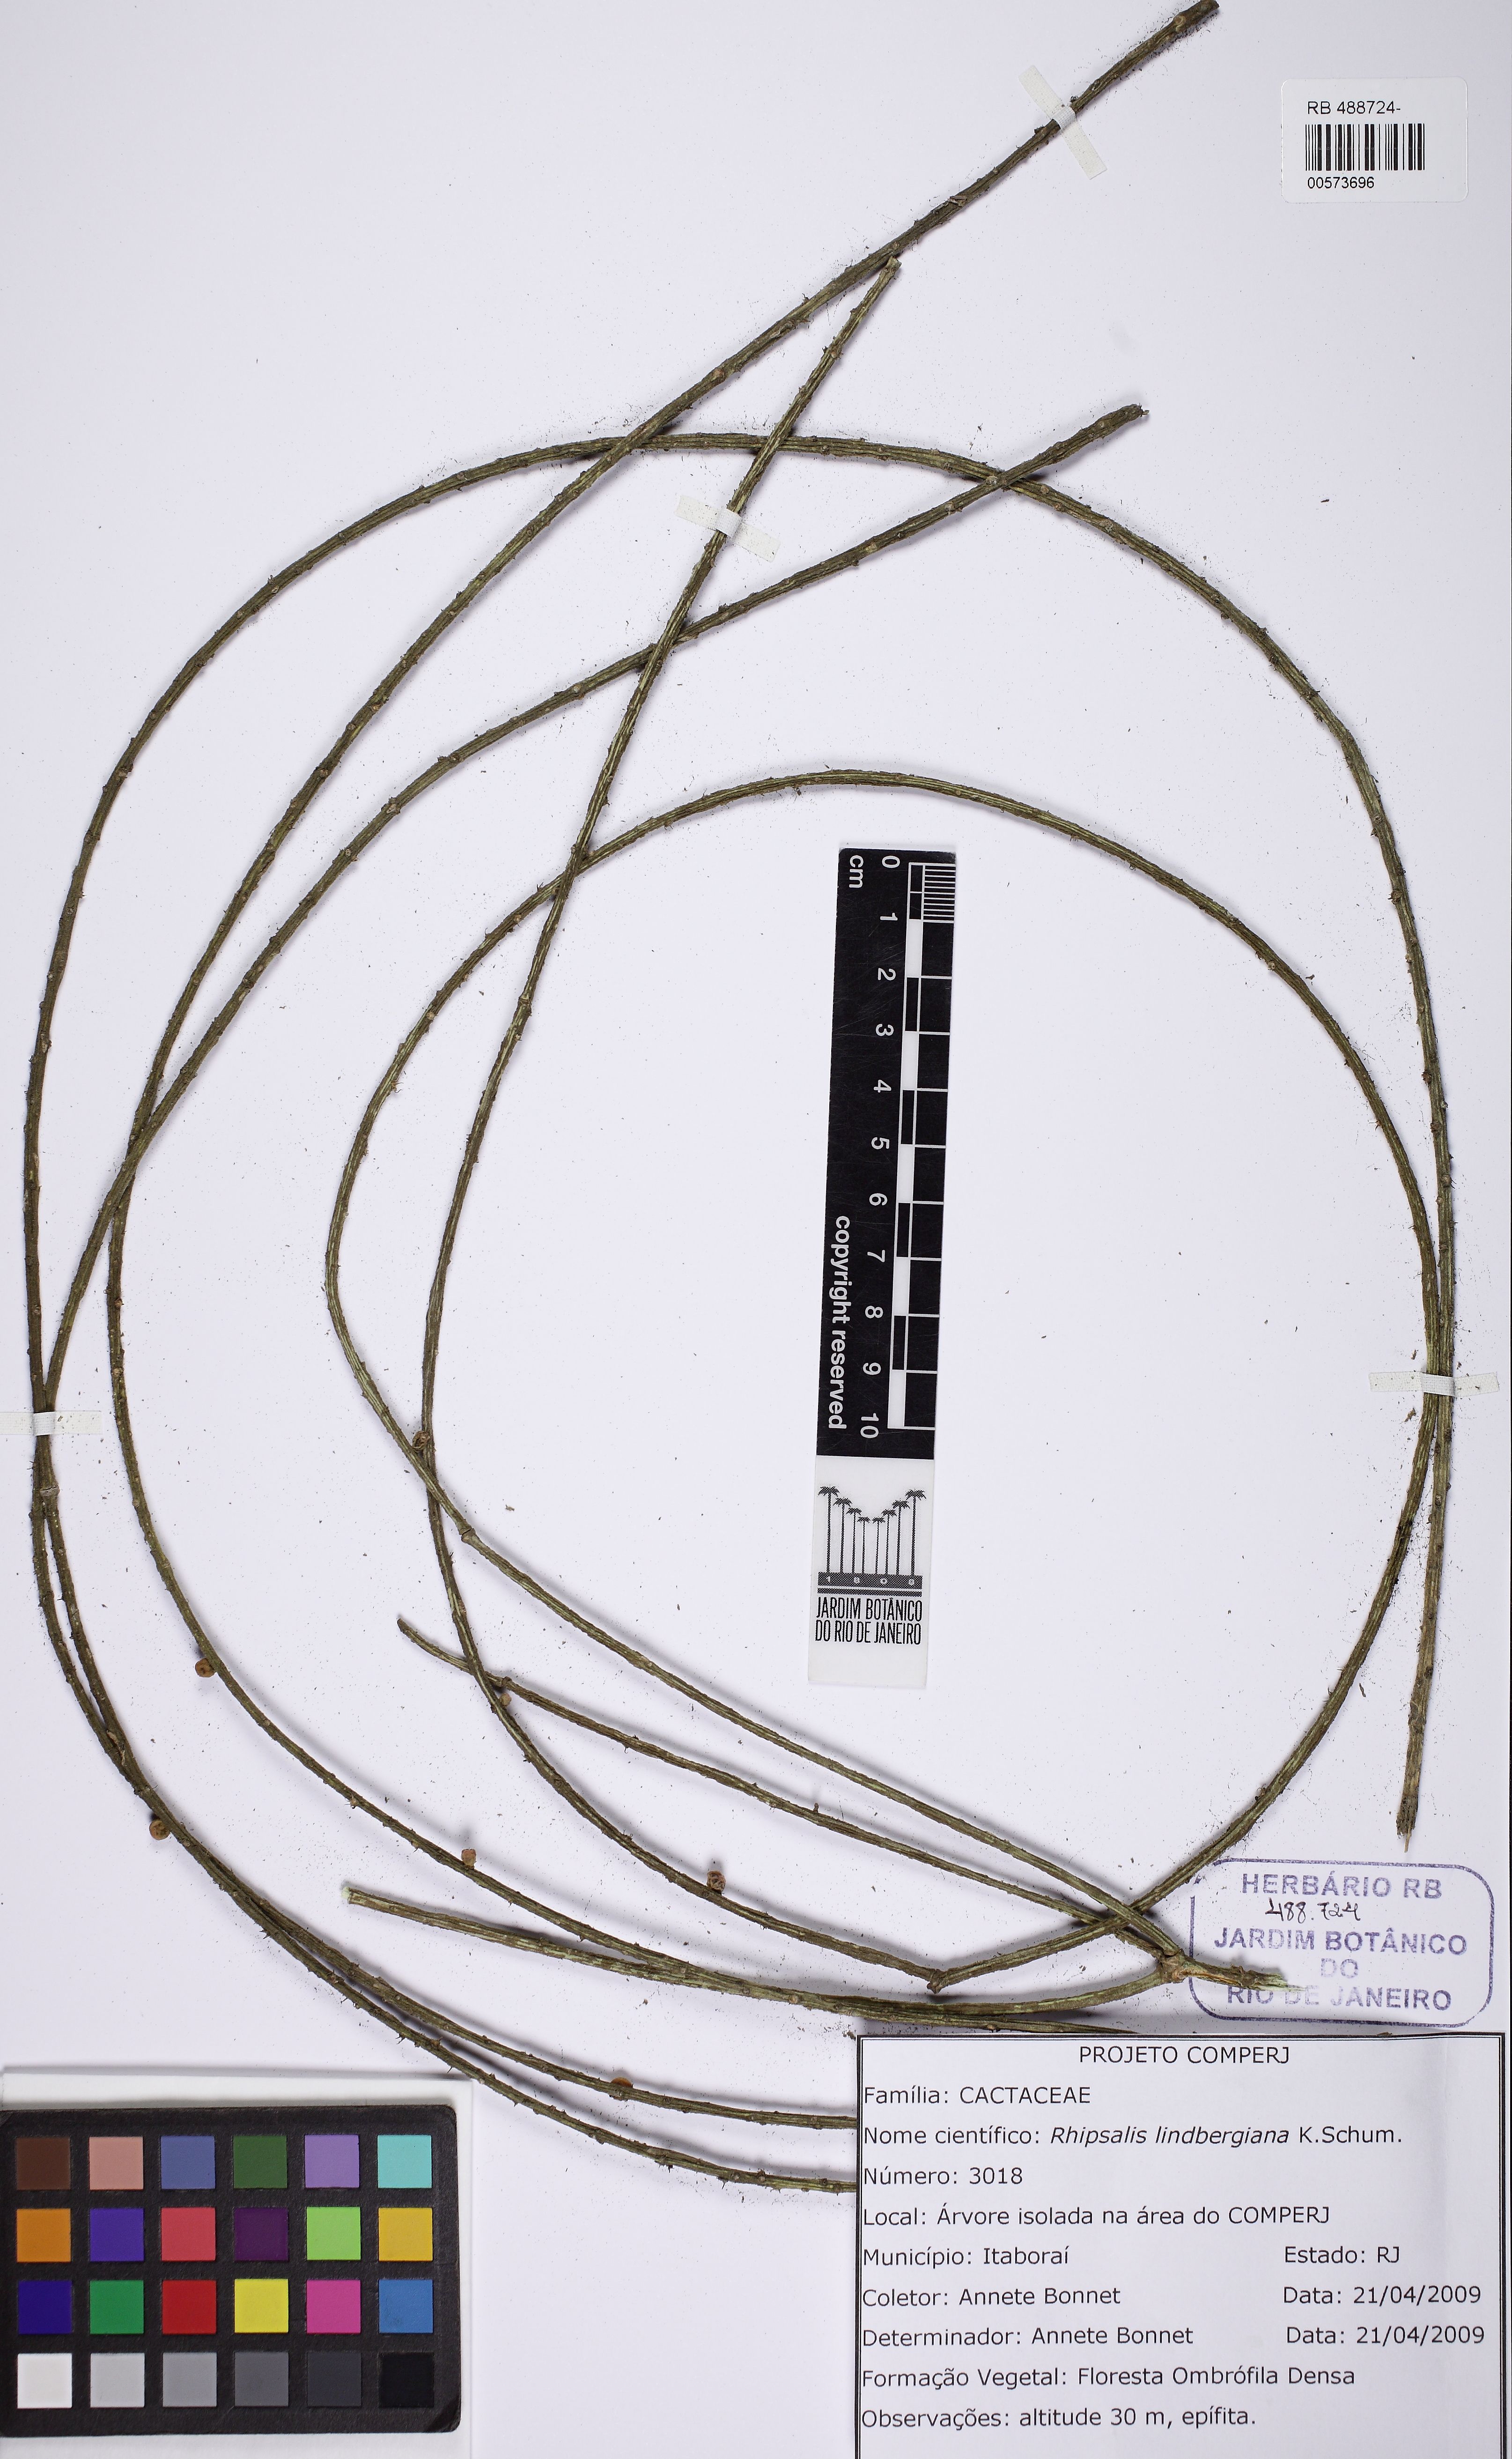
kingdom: Plantae
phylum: Tracheophyta
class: Magnoliopsida
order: Caryophyllales
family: Cactaceae
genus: Rhipsalis
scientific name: Rhipsalis lindbergiana
